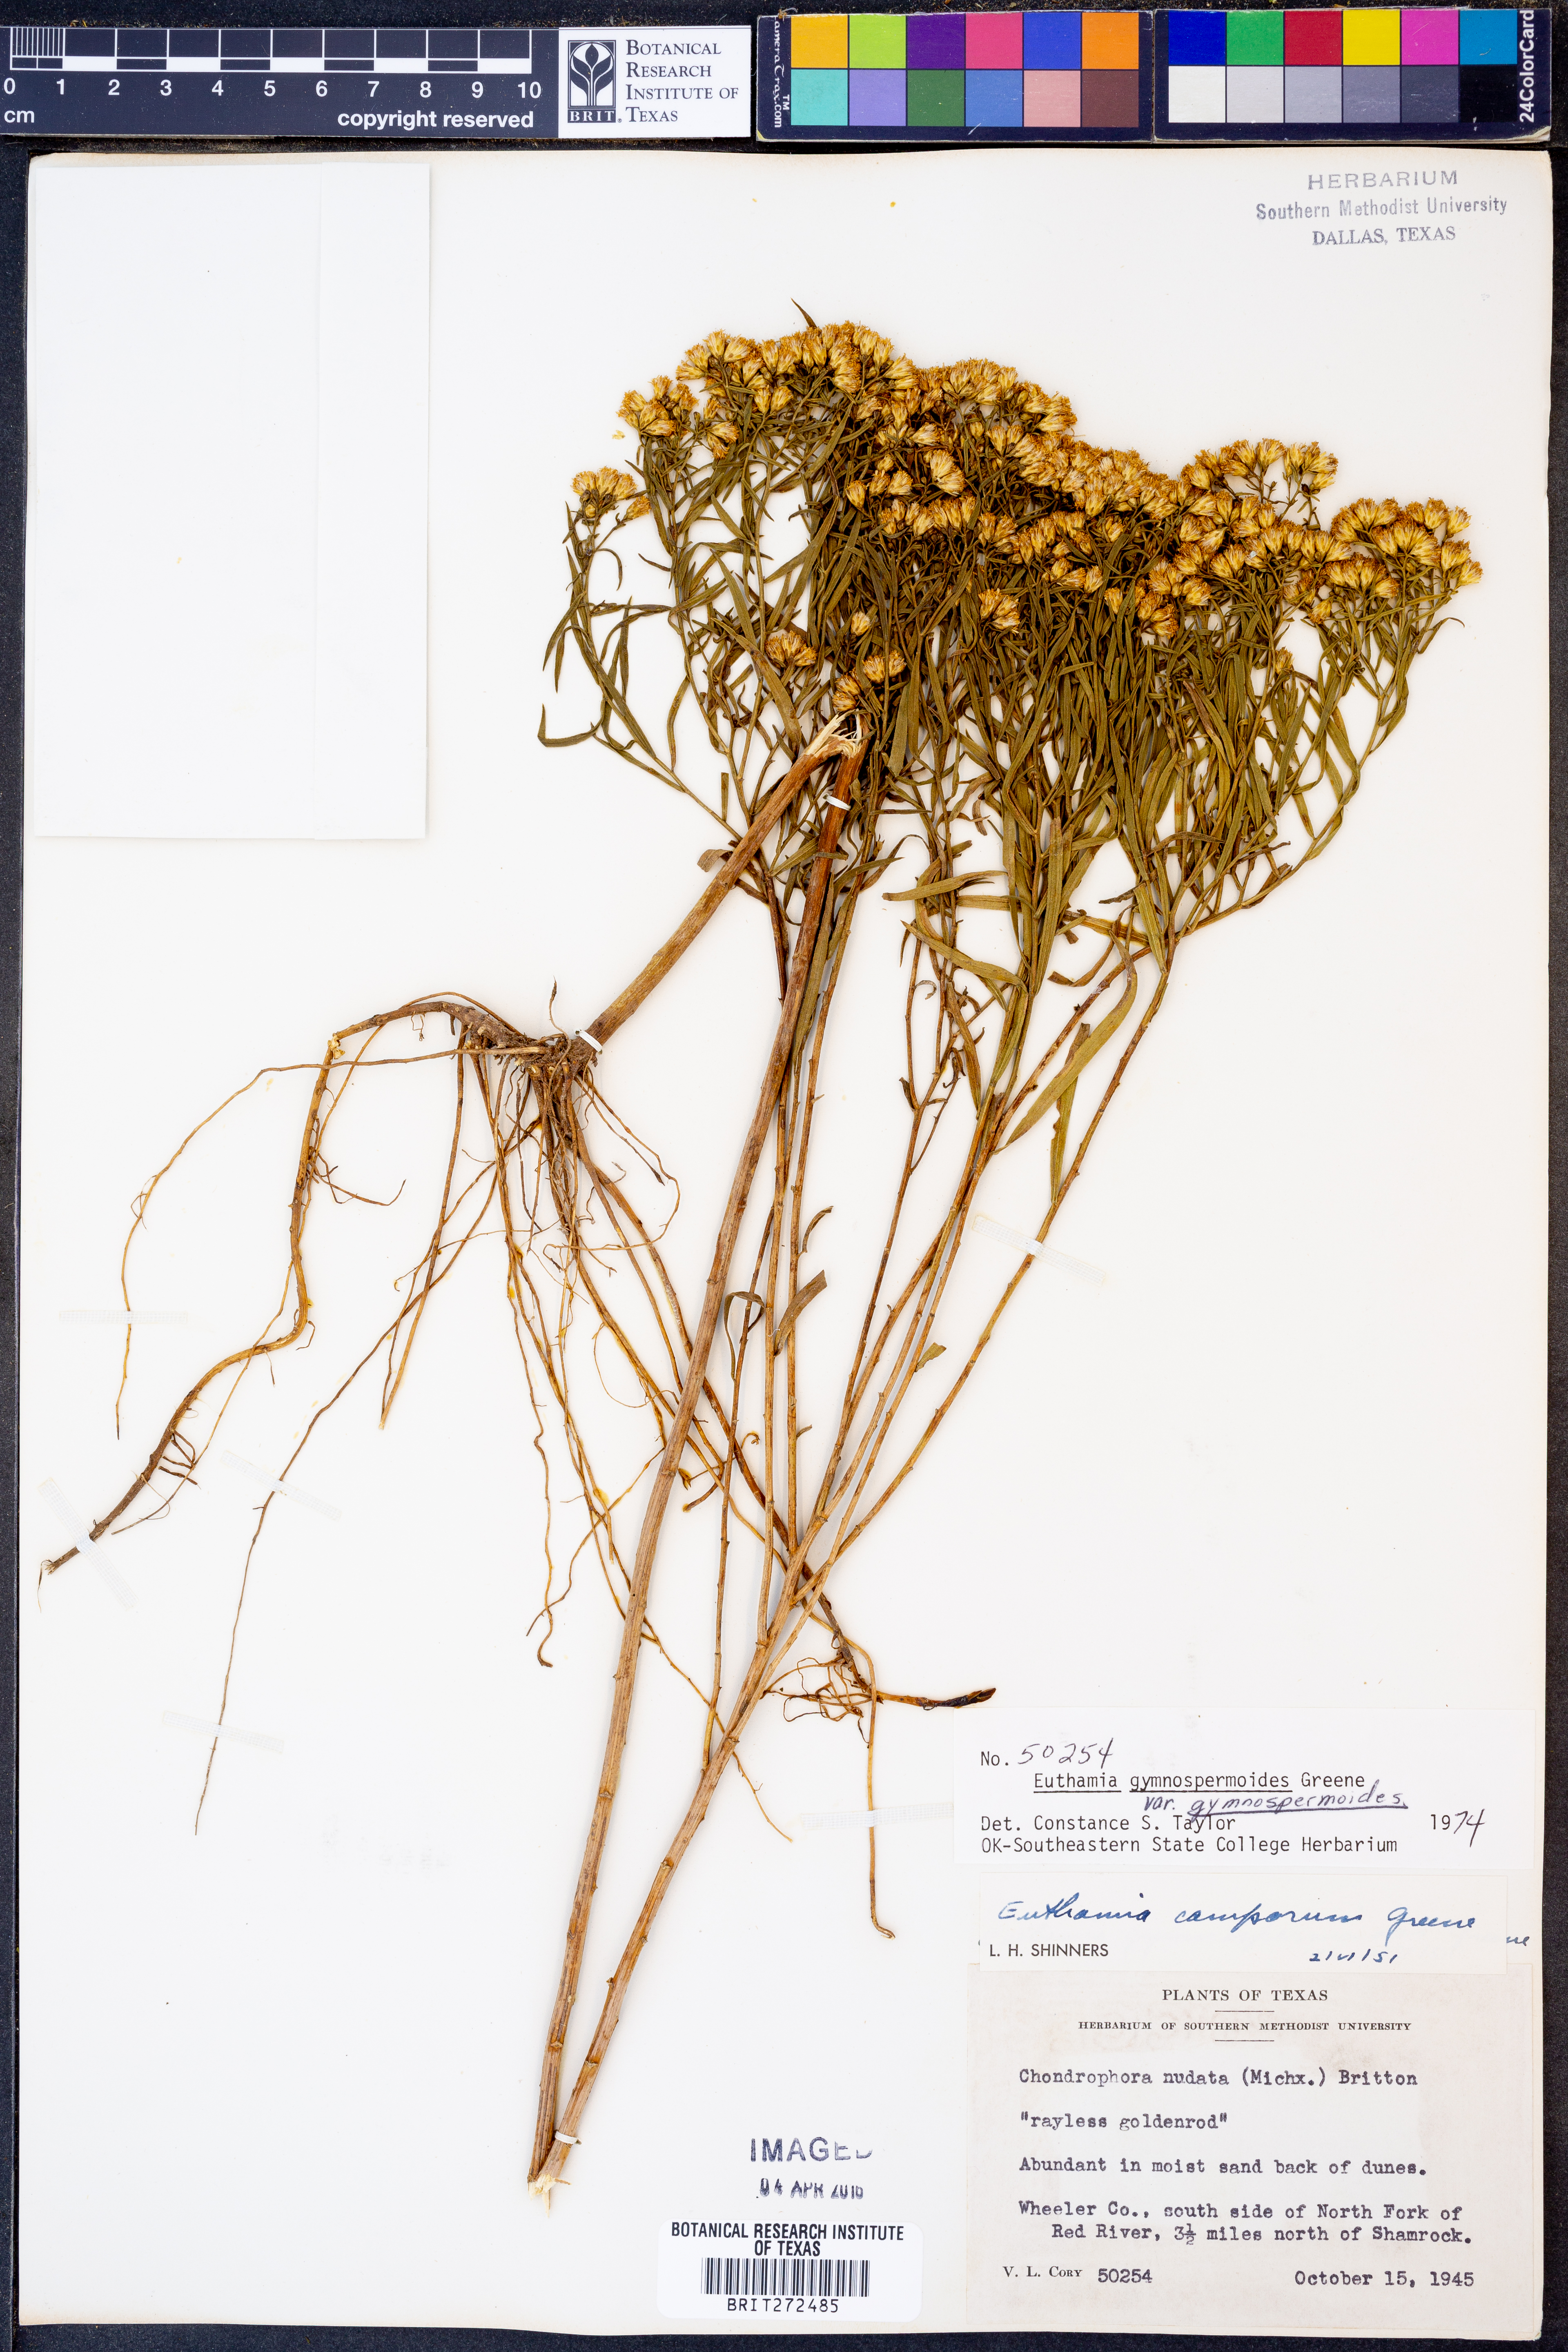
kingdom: Plantae
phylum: Tracheophyta
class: Magnoliopsida
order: Asterales
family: Asteraceae
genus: Euthamia
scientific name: Euthamia gymnospermoides
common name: Great plains goldentop
